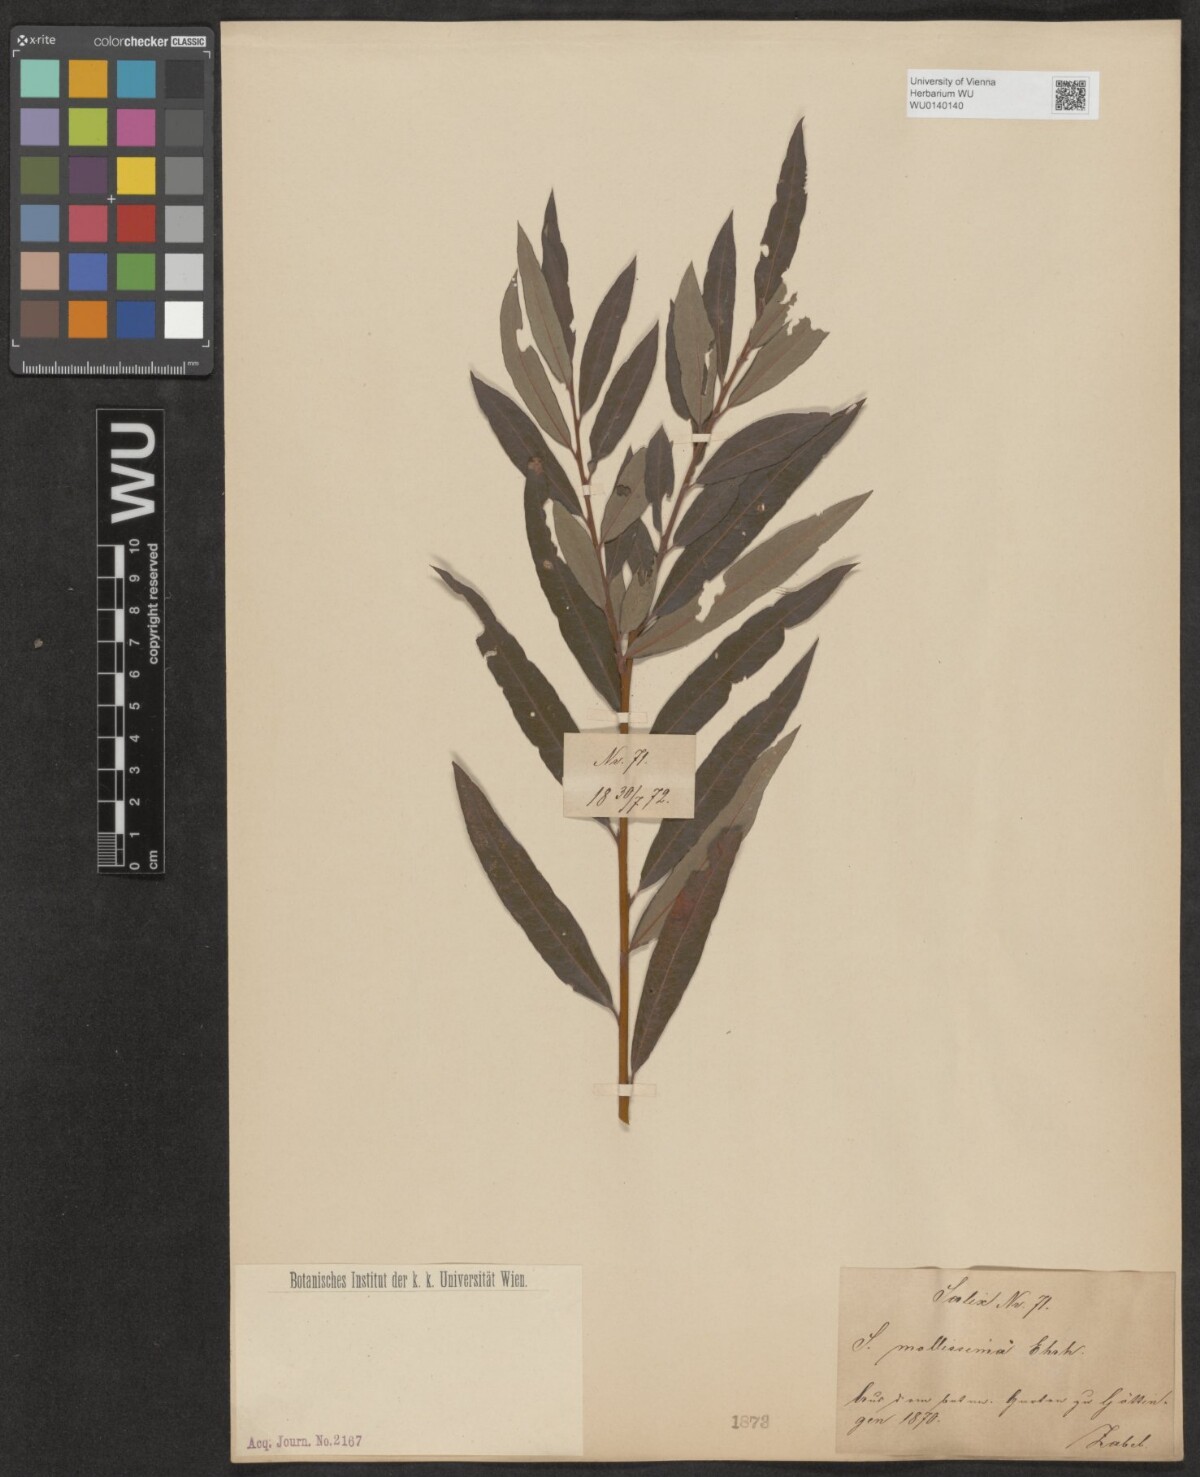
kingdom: Plantae
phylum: Tracheophyta
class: Magnoliopsida
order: Malpighiales
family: Salicaceae
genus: Salix
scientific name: Salix mollissima
